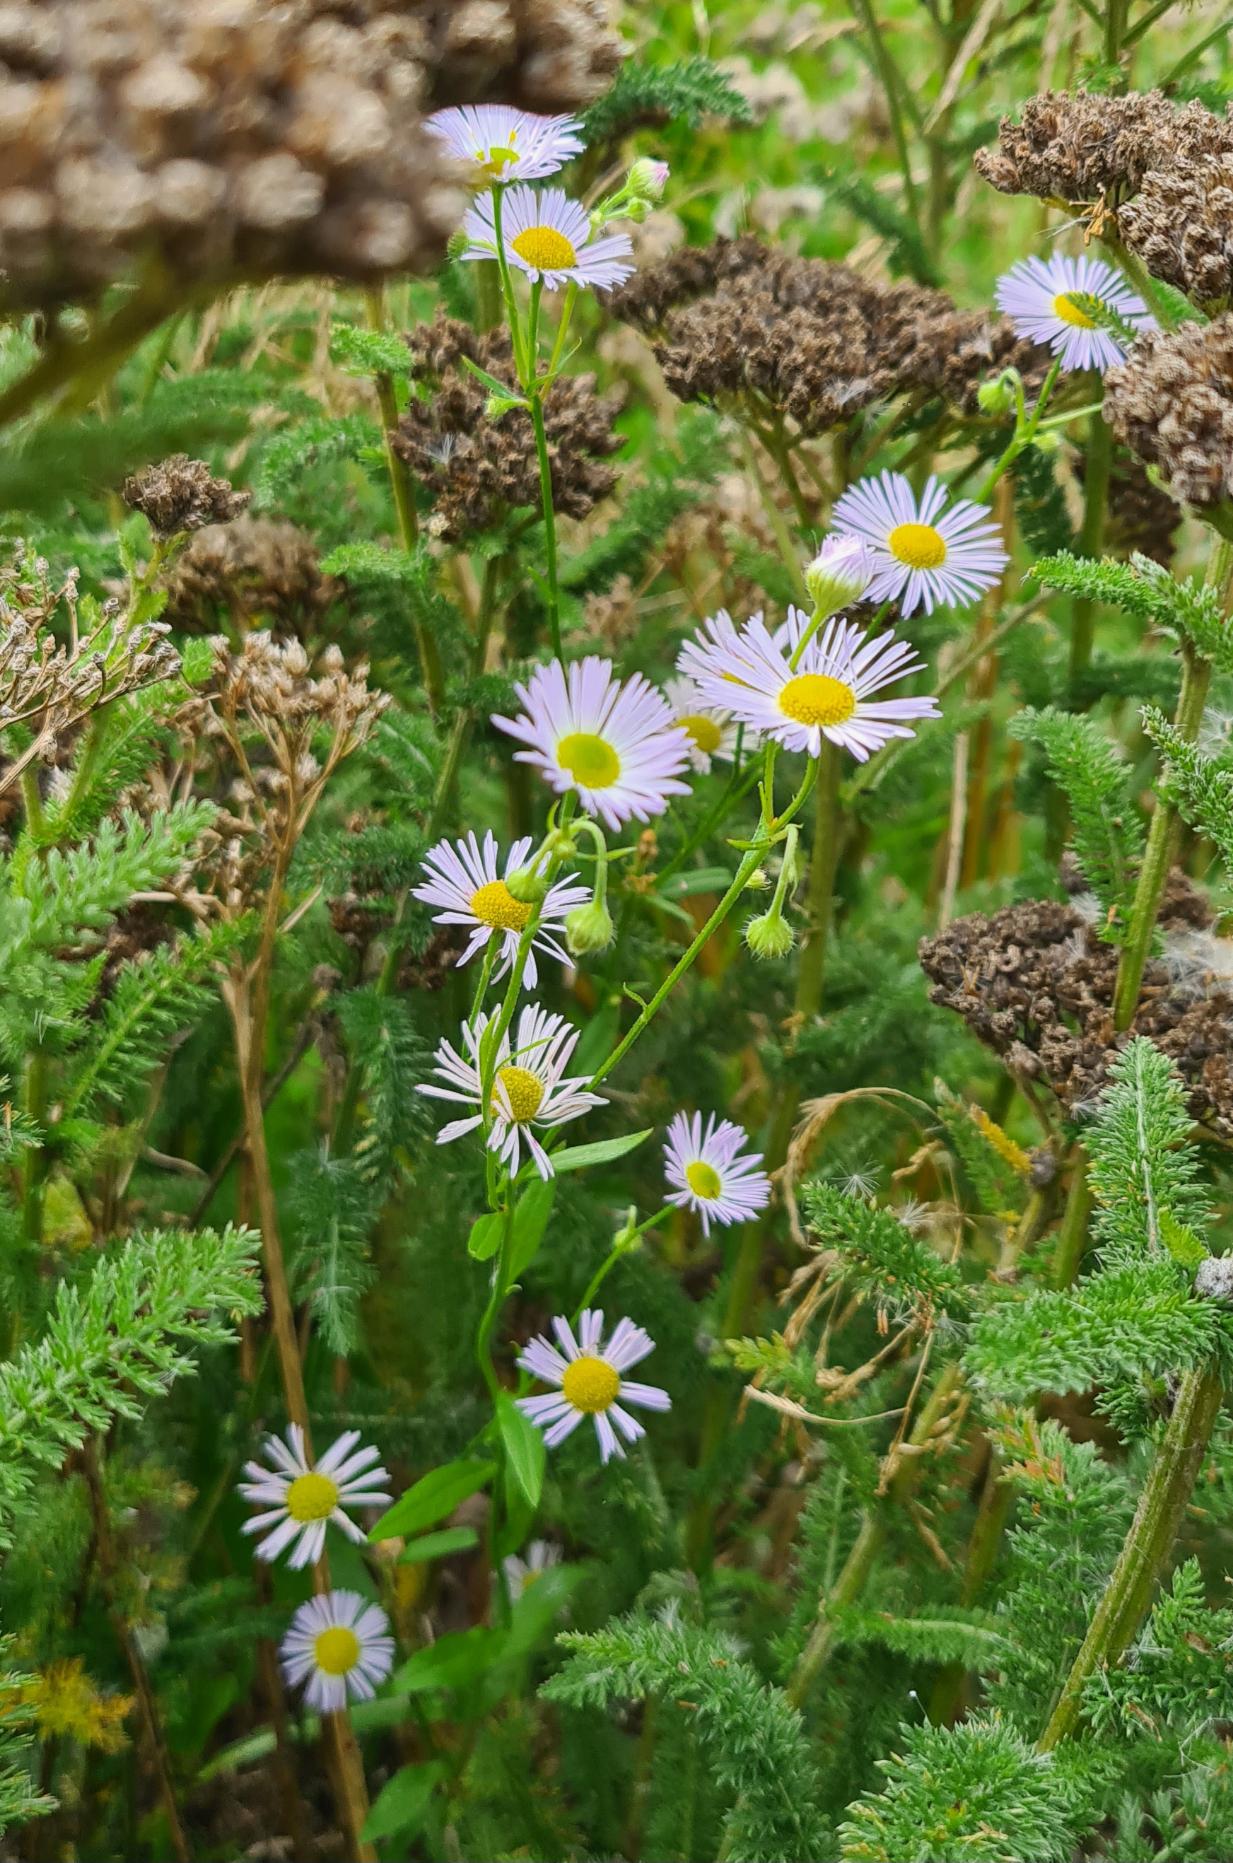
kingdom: Plantae
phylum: Tracheophyta
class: Magnoliopsida
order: Asterales
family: Asteraceae
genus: Erigeron
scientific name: Erigeron annuus
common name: Smalstråle
